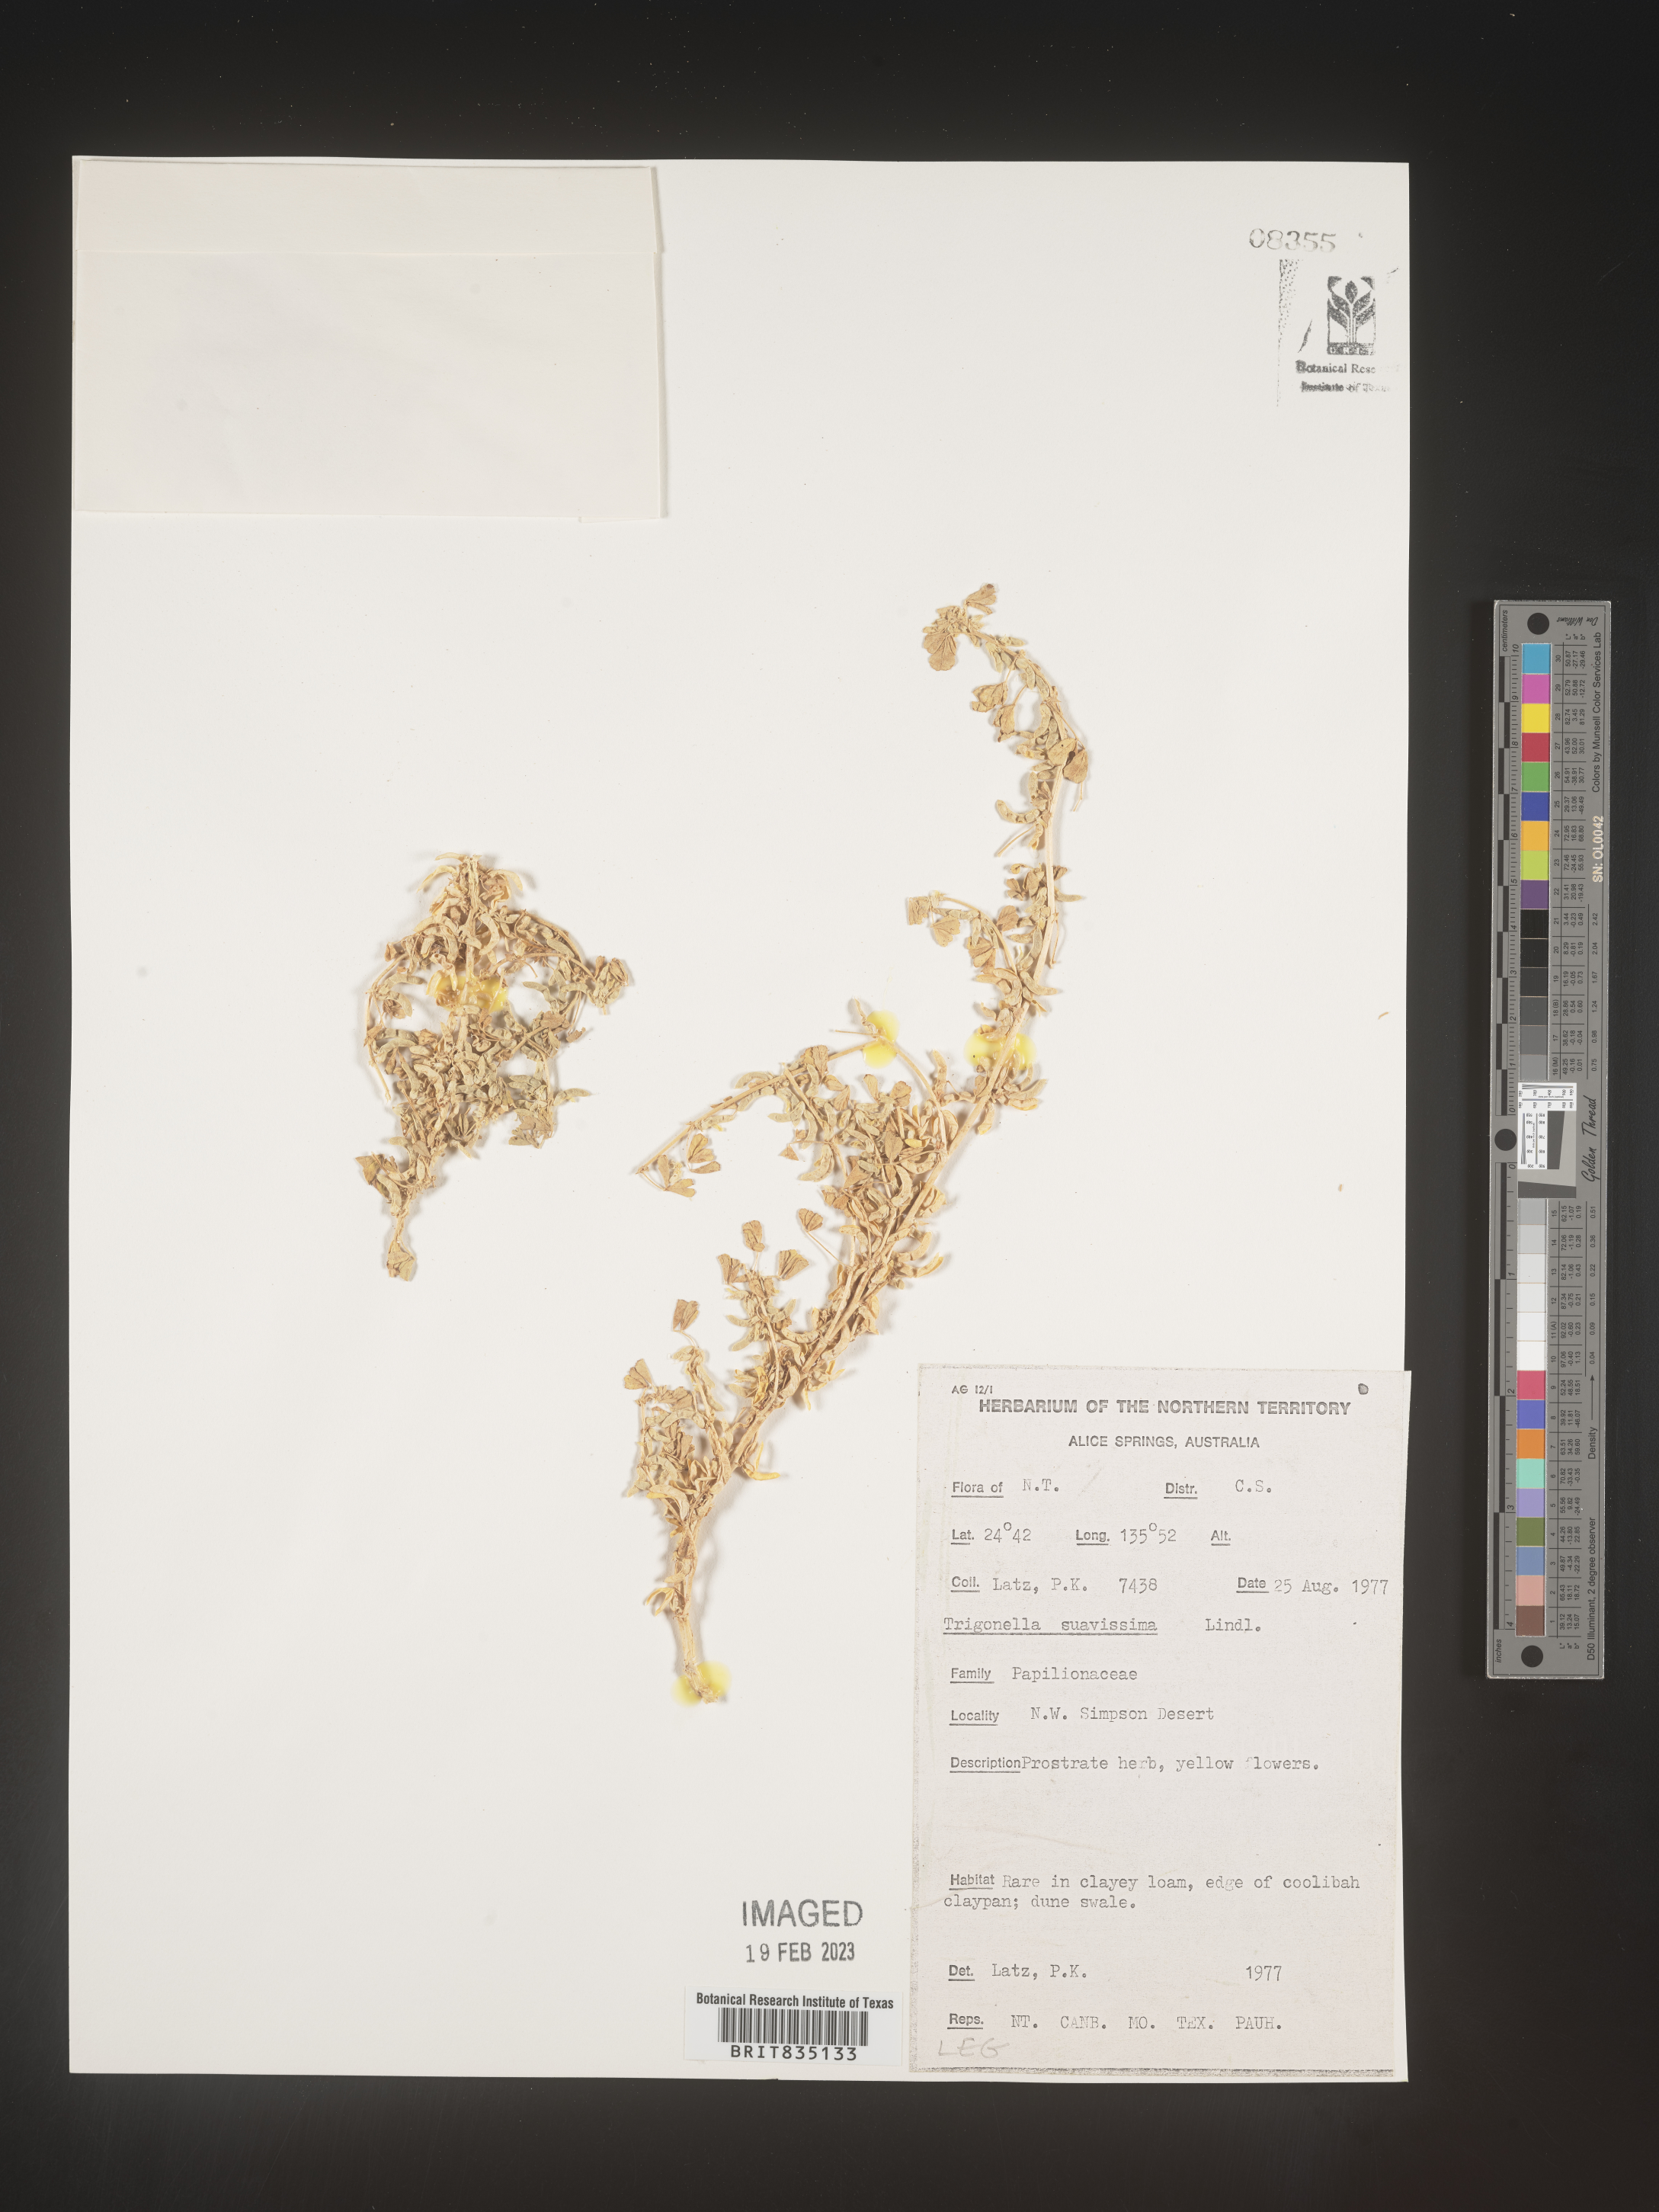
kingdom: Plantae
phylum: Tracheophyta
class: Magnoliopsida
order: Fabales
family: Fabaceae
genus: Trigonella
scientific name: Trigonella
